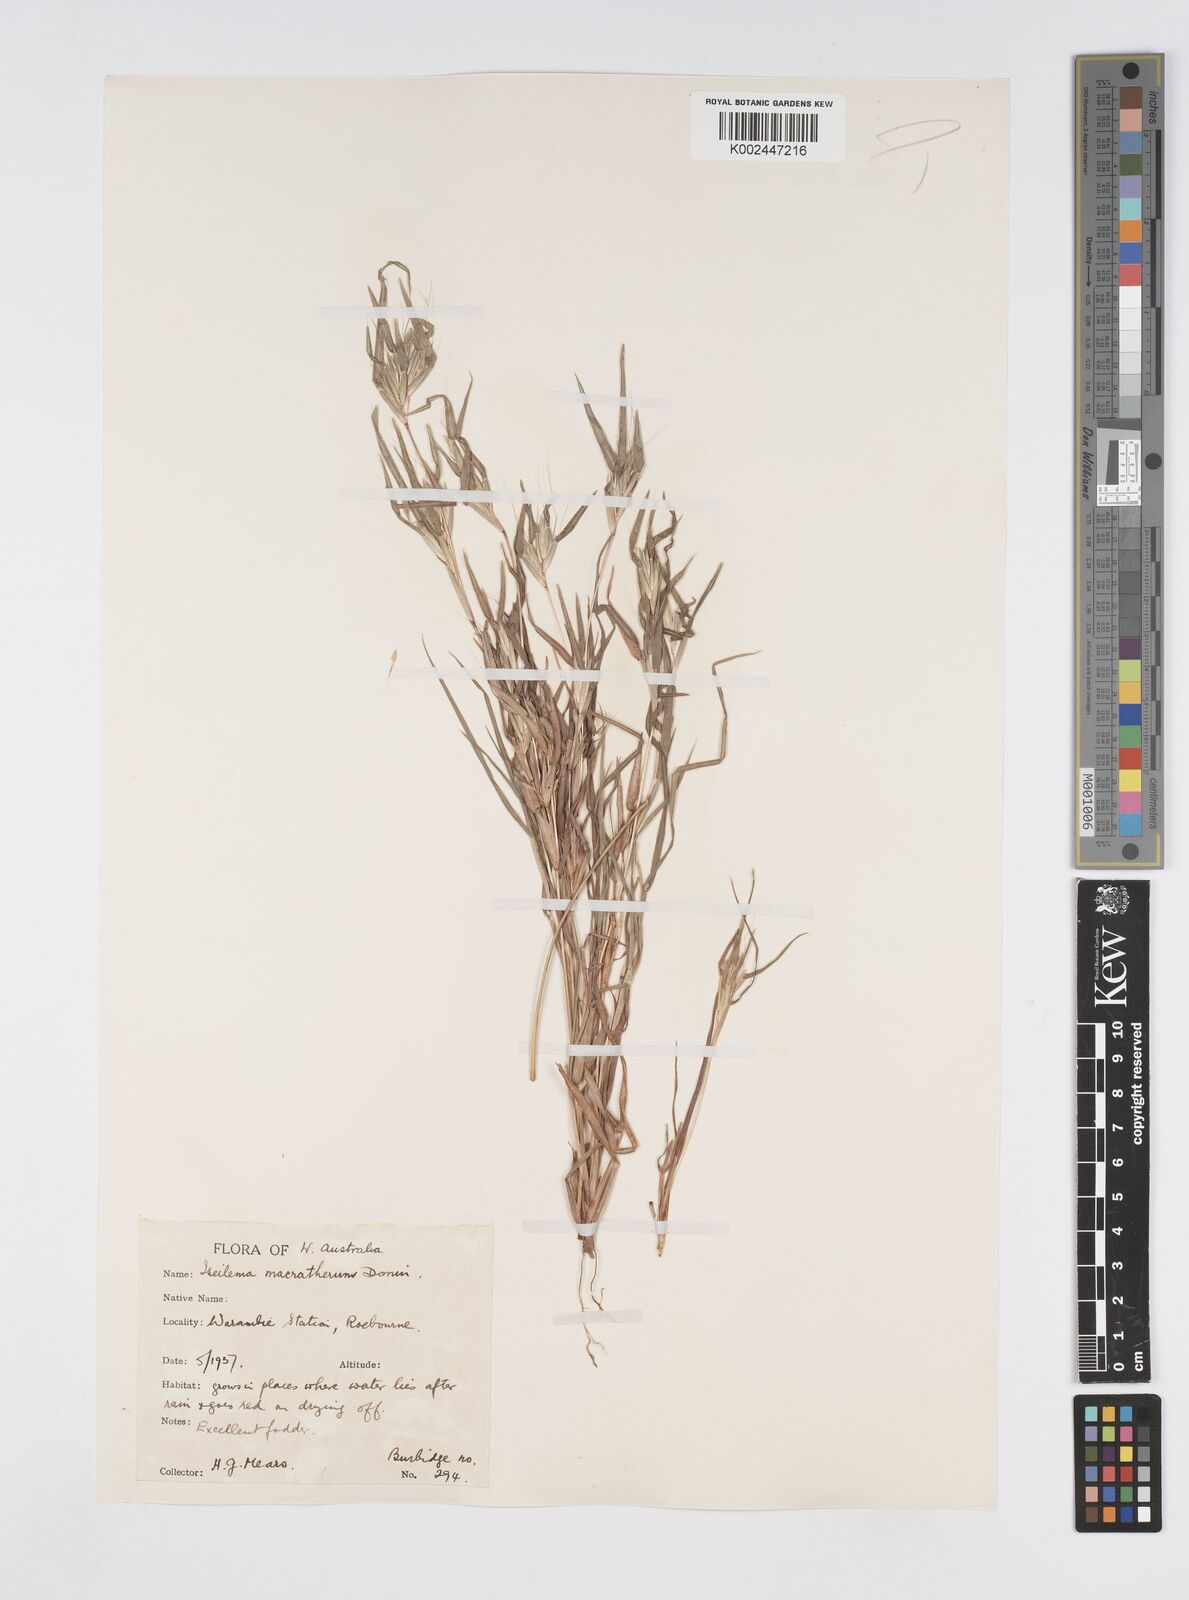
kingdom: Plantae
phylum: Tracheophyta
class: Liliopsida
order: Poales
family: Poaceae
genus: Iseilema
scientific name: Iseilema macratherum
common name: Bull flinders grass
